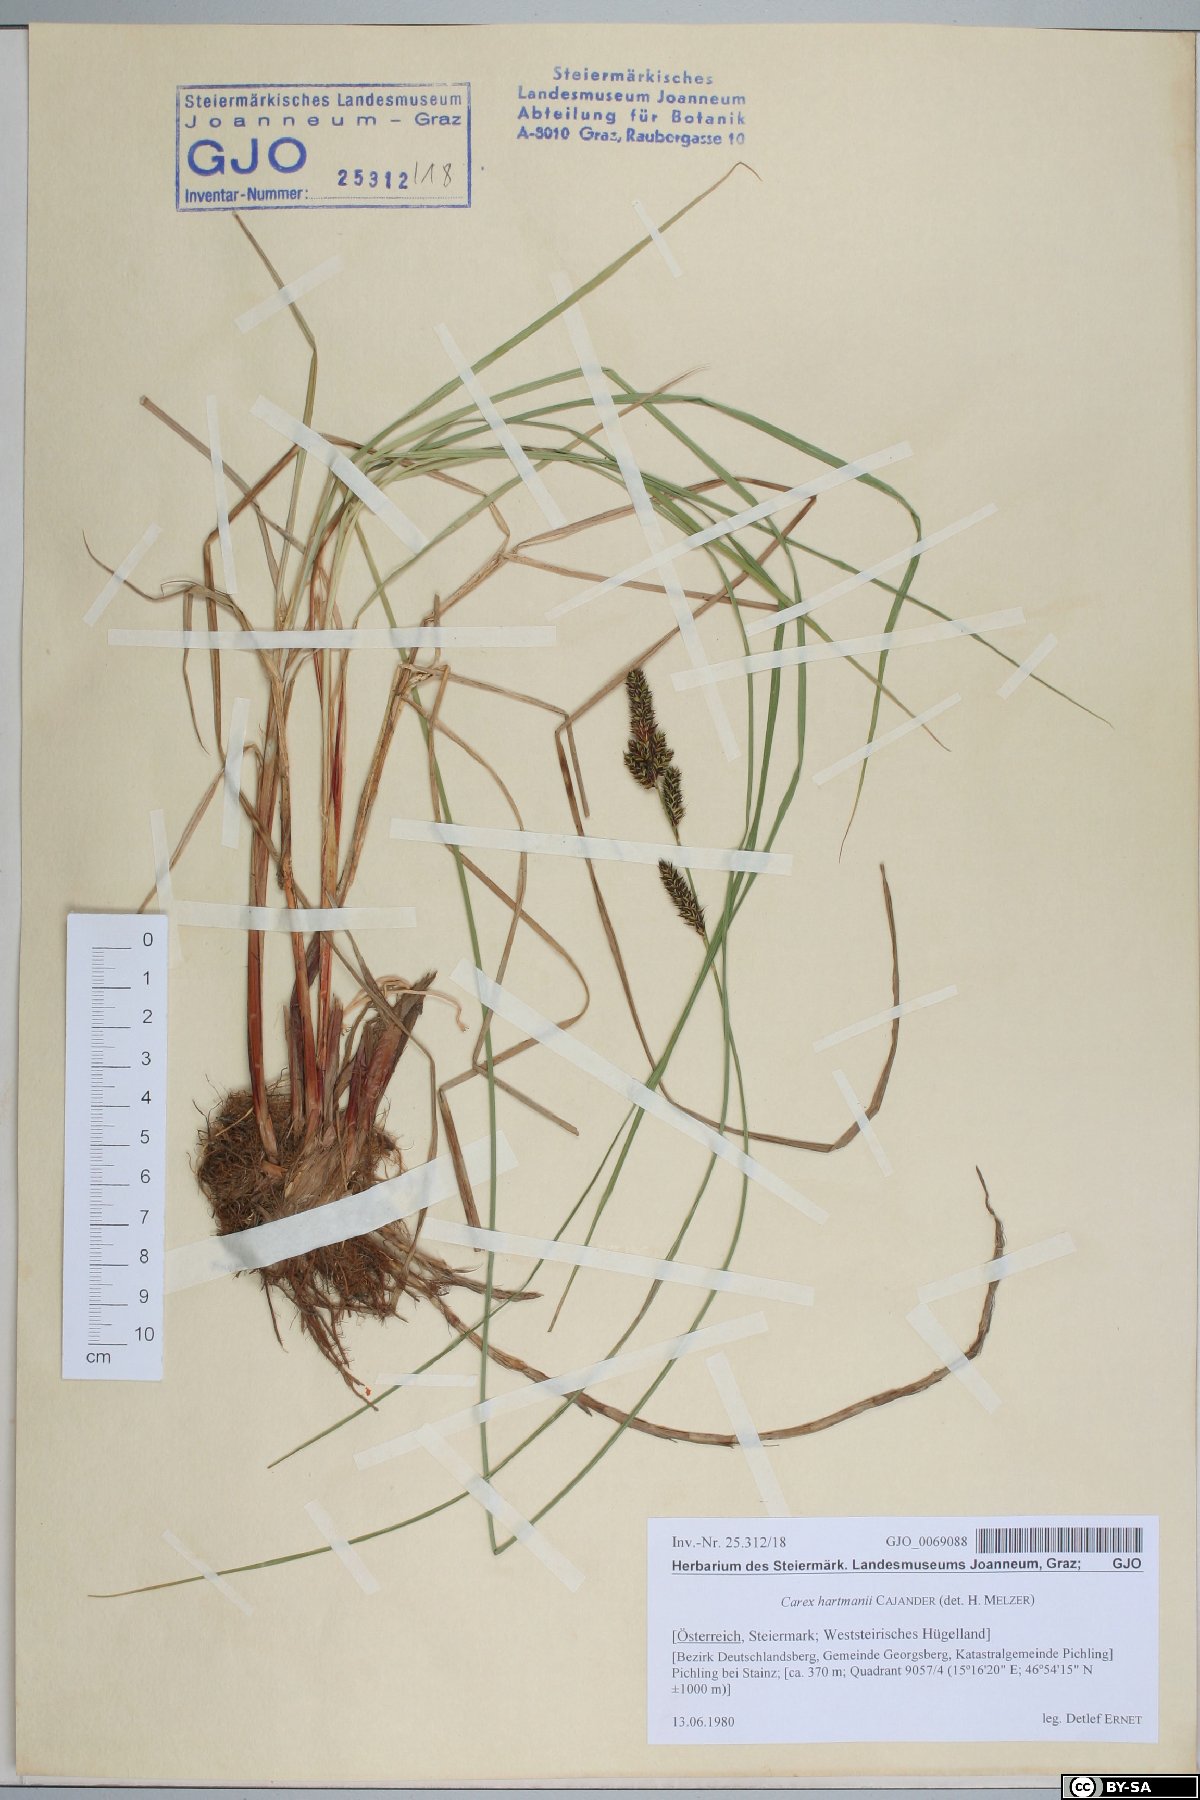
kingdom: Plantae
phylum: Tracheophyta
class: Liliopsida
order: Poales
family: Cyperaceae
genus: Carex
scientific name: Carex hartmaniorum
